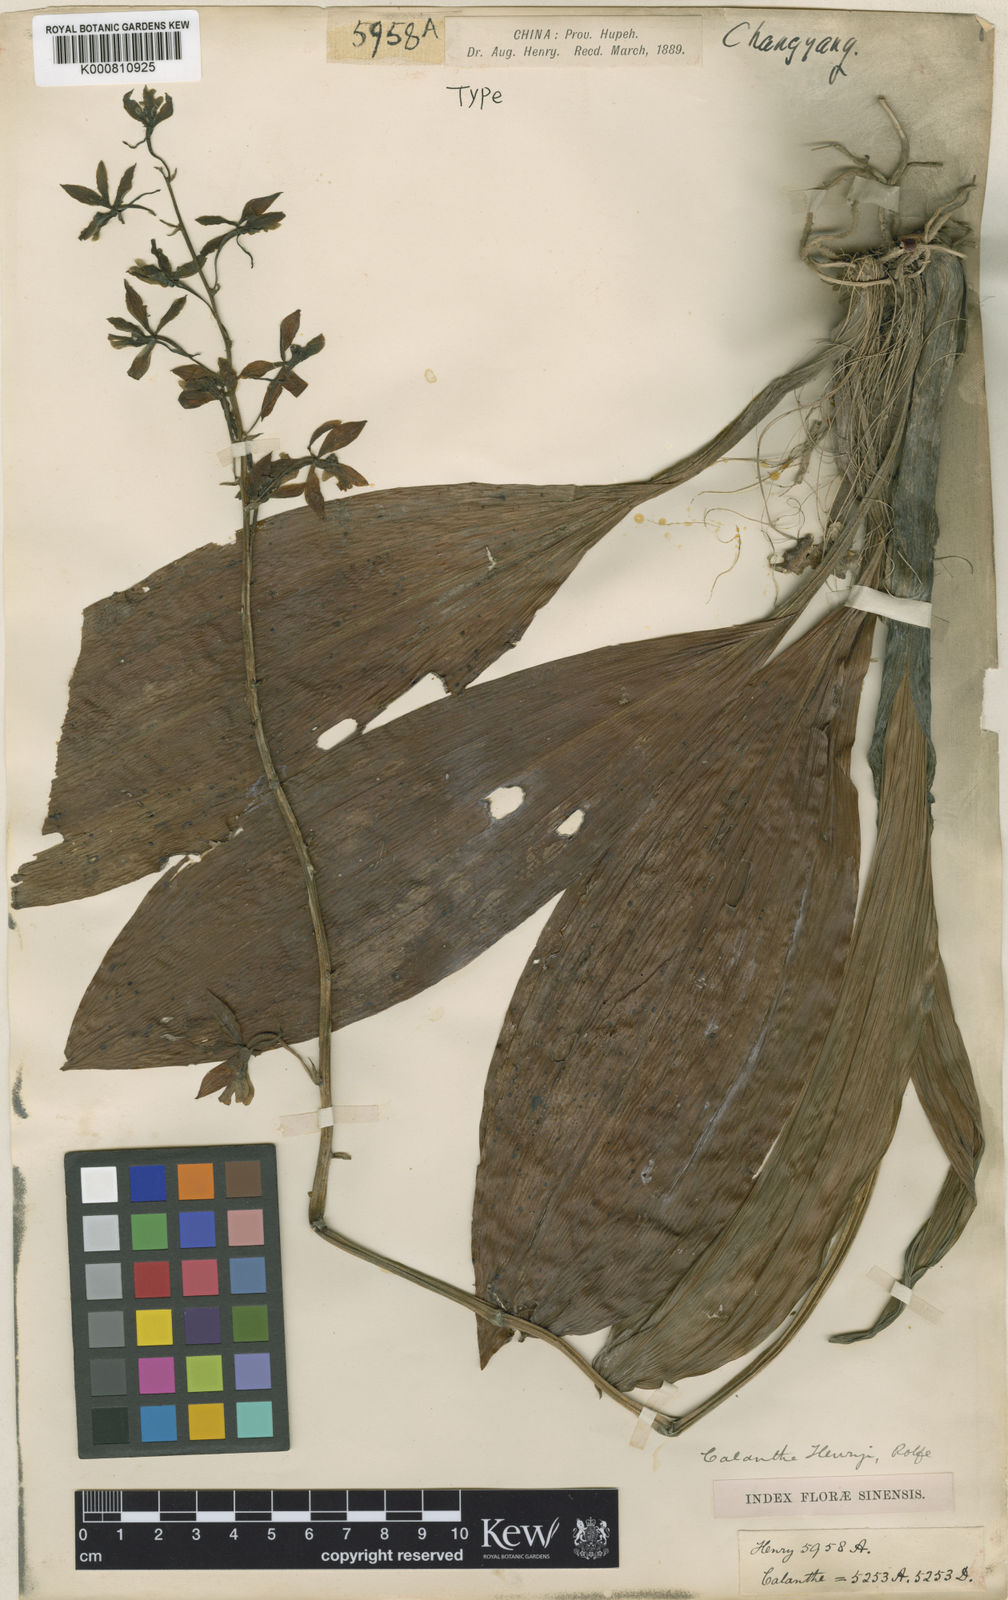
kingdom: Plantae
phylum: Tracheophyta
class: Liliopsida
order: Asparagales
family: Orchidaceae
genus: Calanthe
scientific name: Calanthe lamellosa
